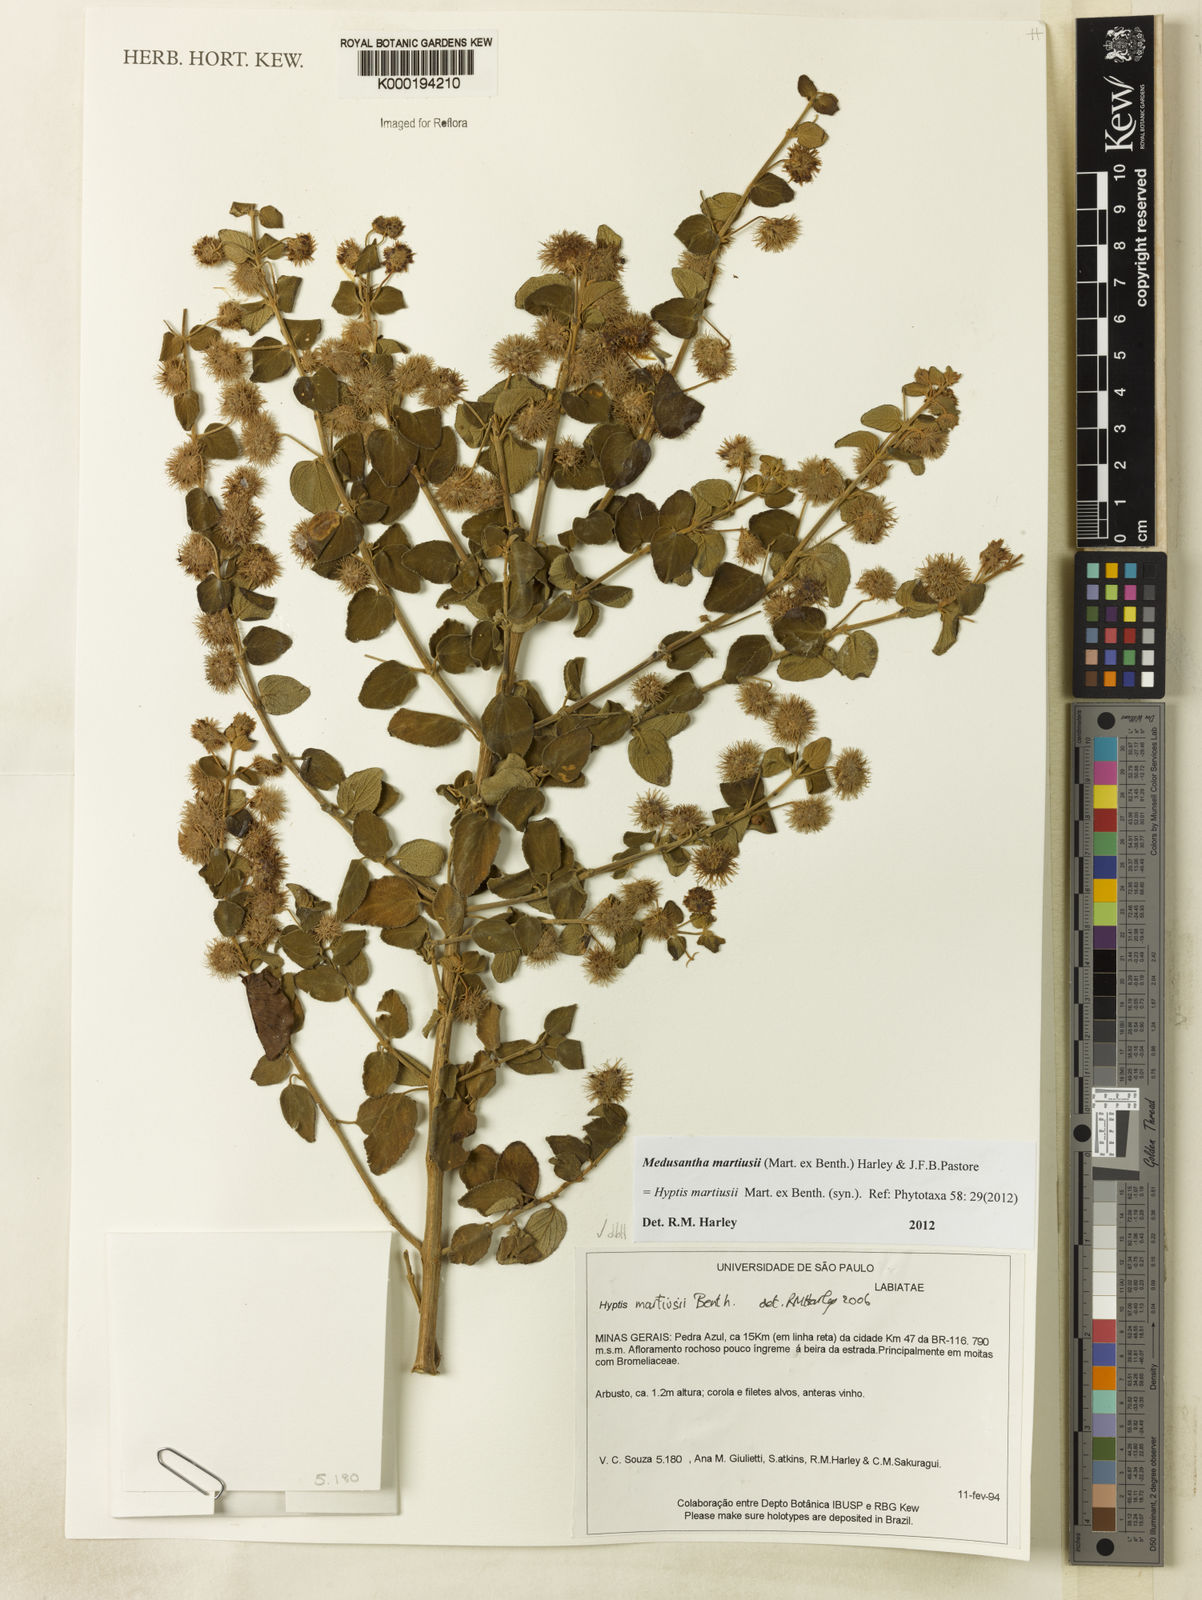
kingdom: Plantae
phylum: Tracheophyta
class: Magnoliopsida
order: Lamiales
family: Lamiaceae
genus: Medusantha
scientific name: Medusantha martiusii
